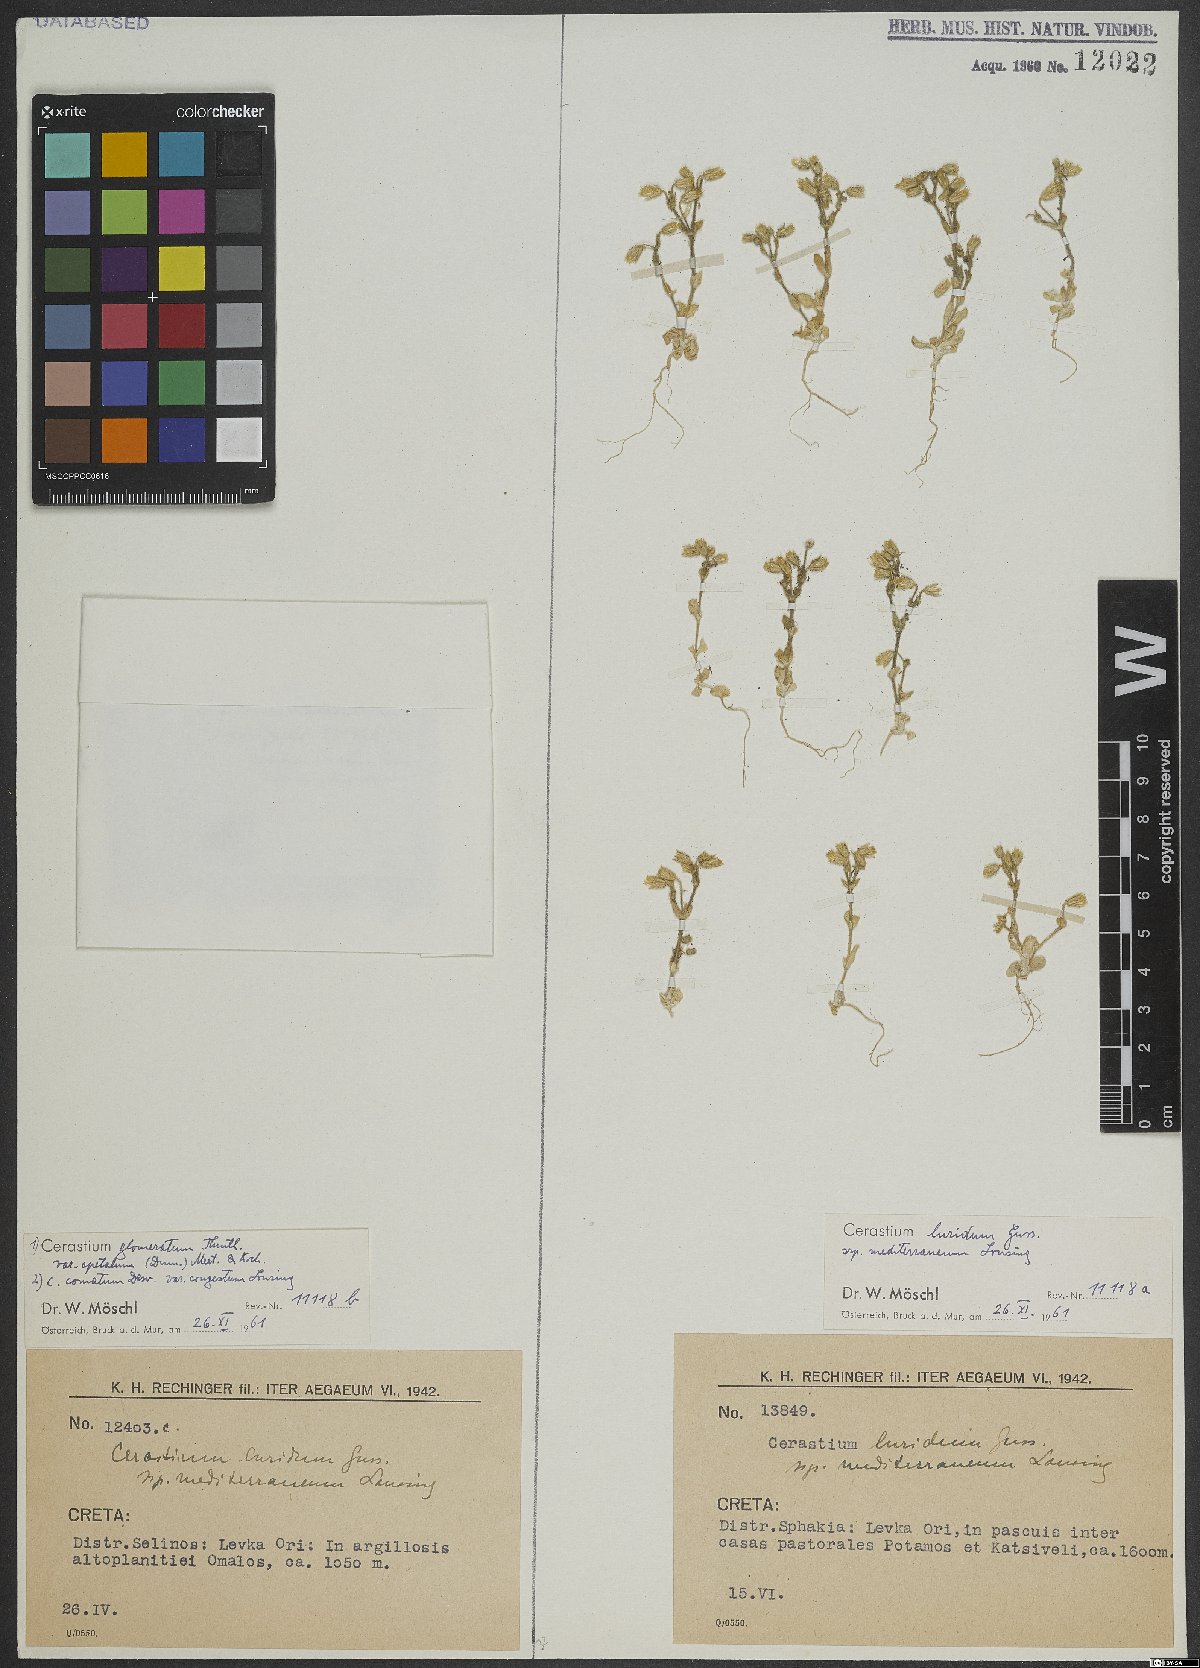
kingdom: Plantae
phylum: Tracheophyta
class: Magnoliopsida
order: Caryophyllales
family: Caryophyllaceae
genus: Cerastium
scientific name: Cerastium brachypetalum
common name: Grey mouse-ear
